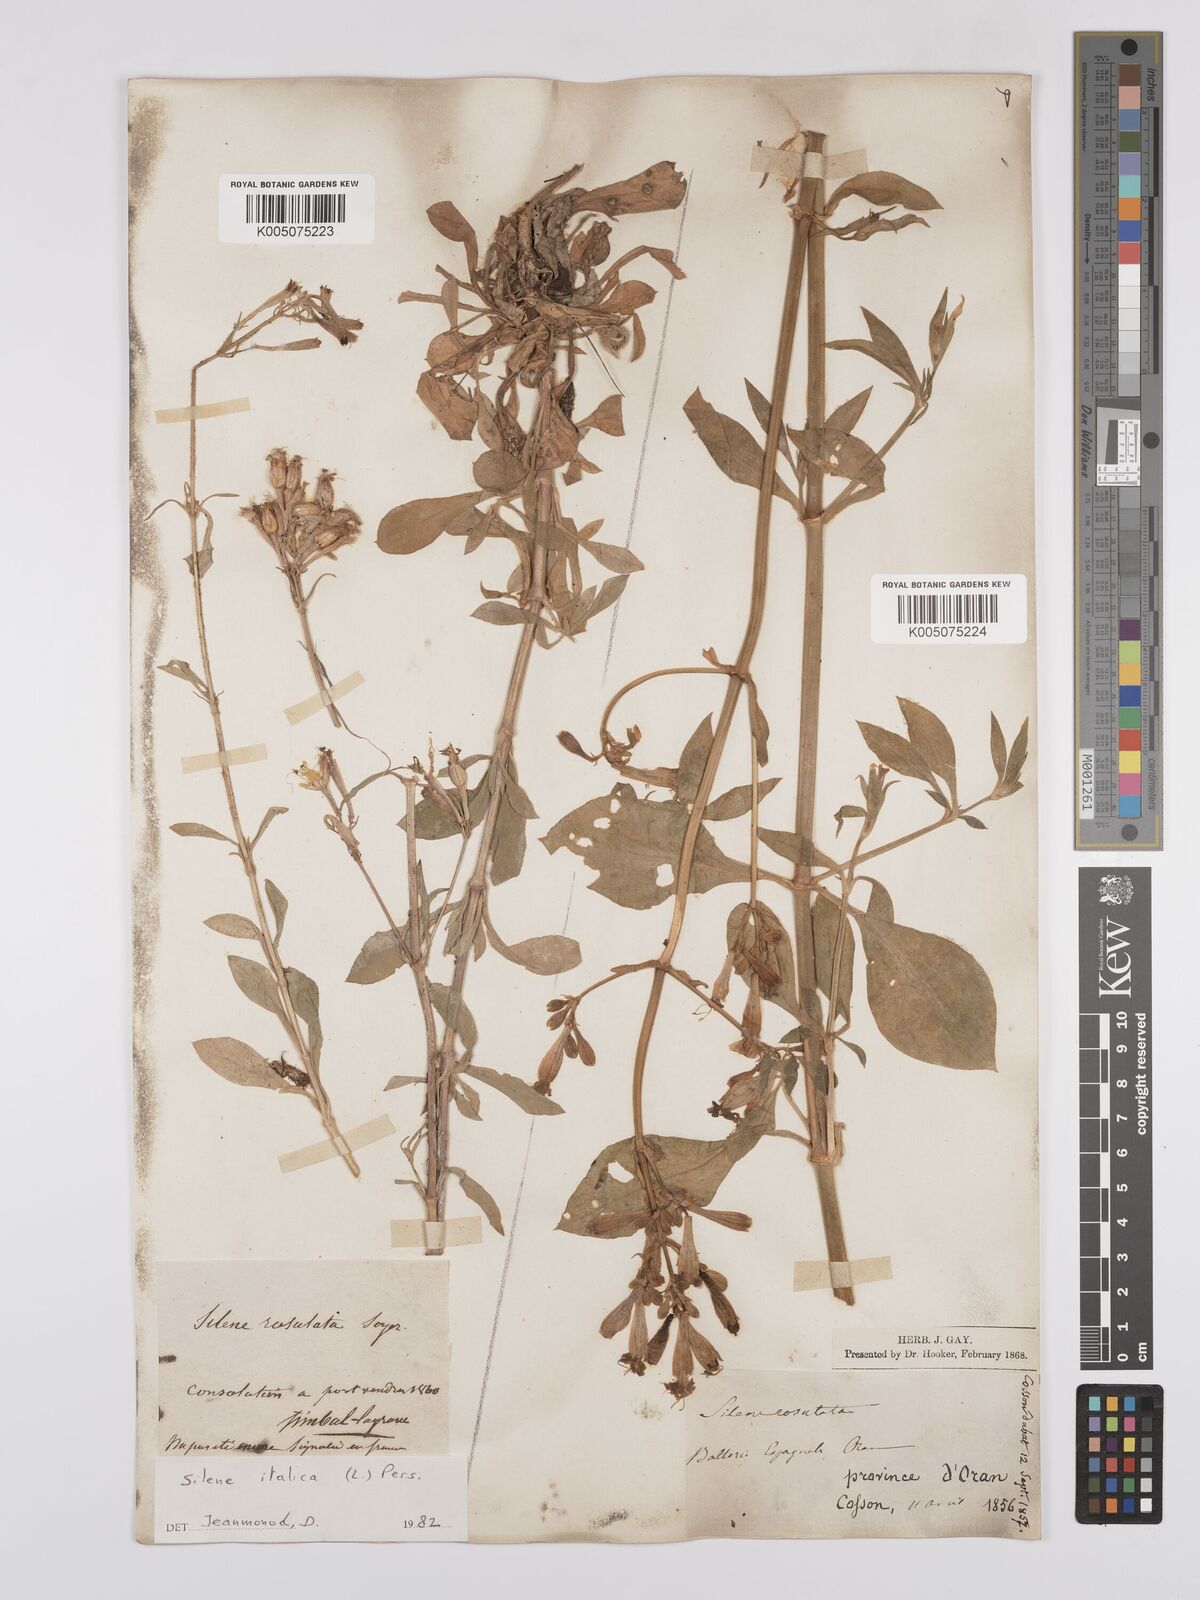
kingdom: Plantae
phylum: Tracheophyta
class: Magnoliopsida
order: Caryophyllales
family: Caryophyllaceae
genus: Silene
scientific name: Silene rosulata
